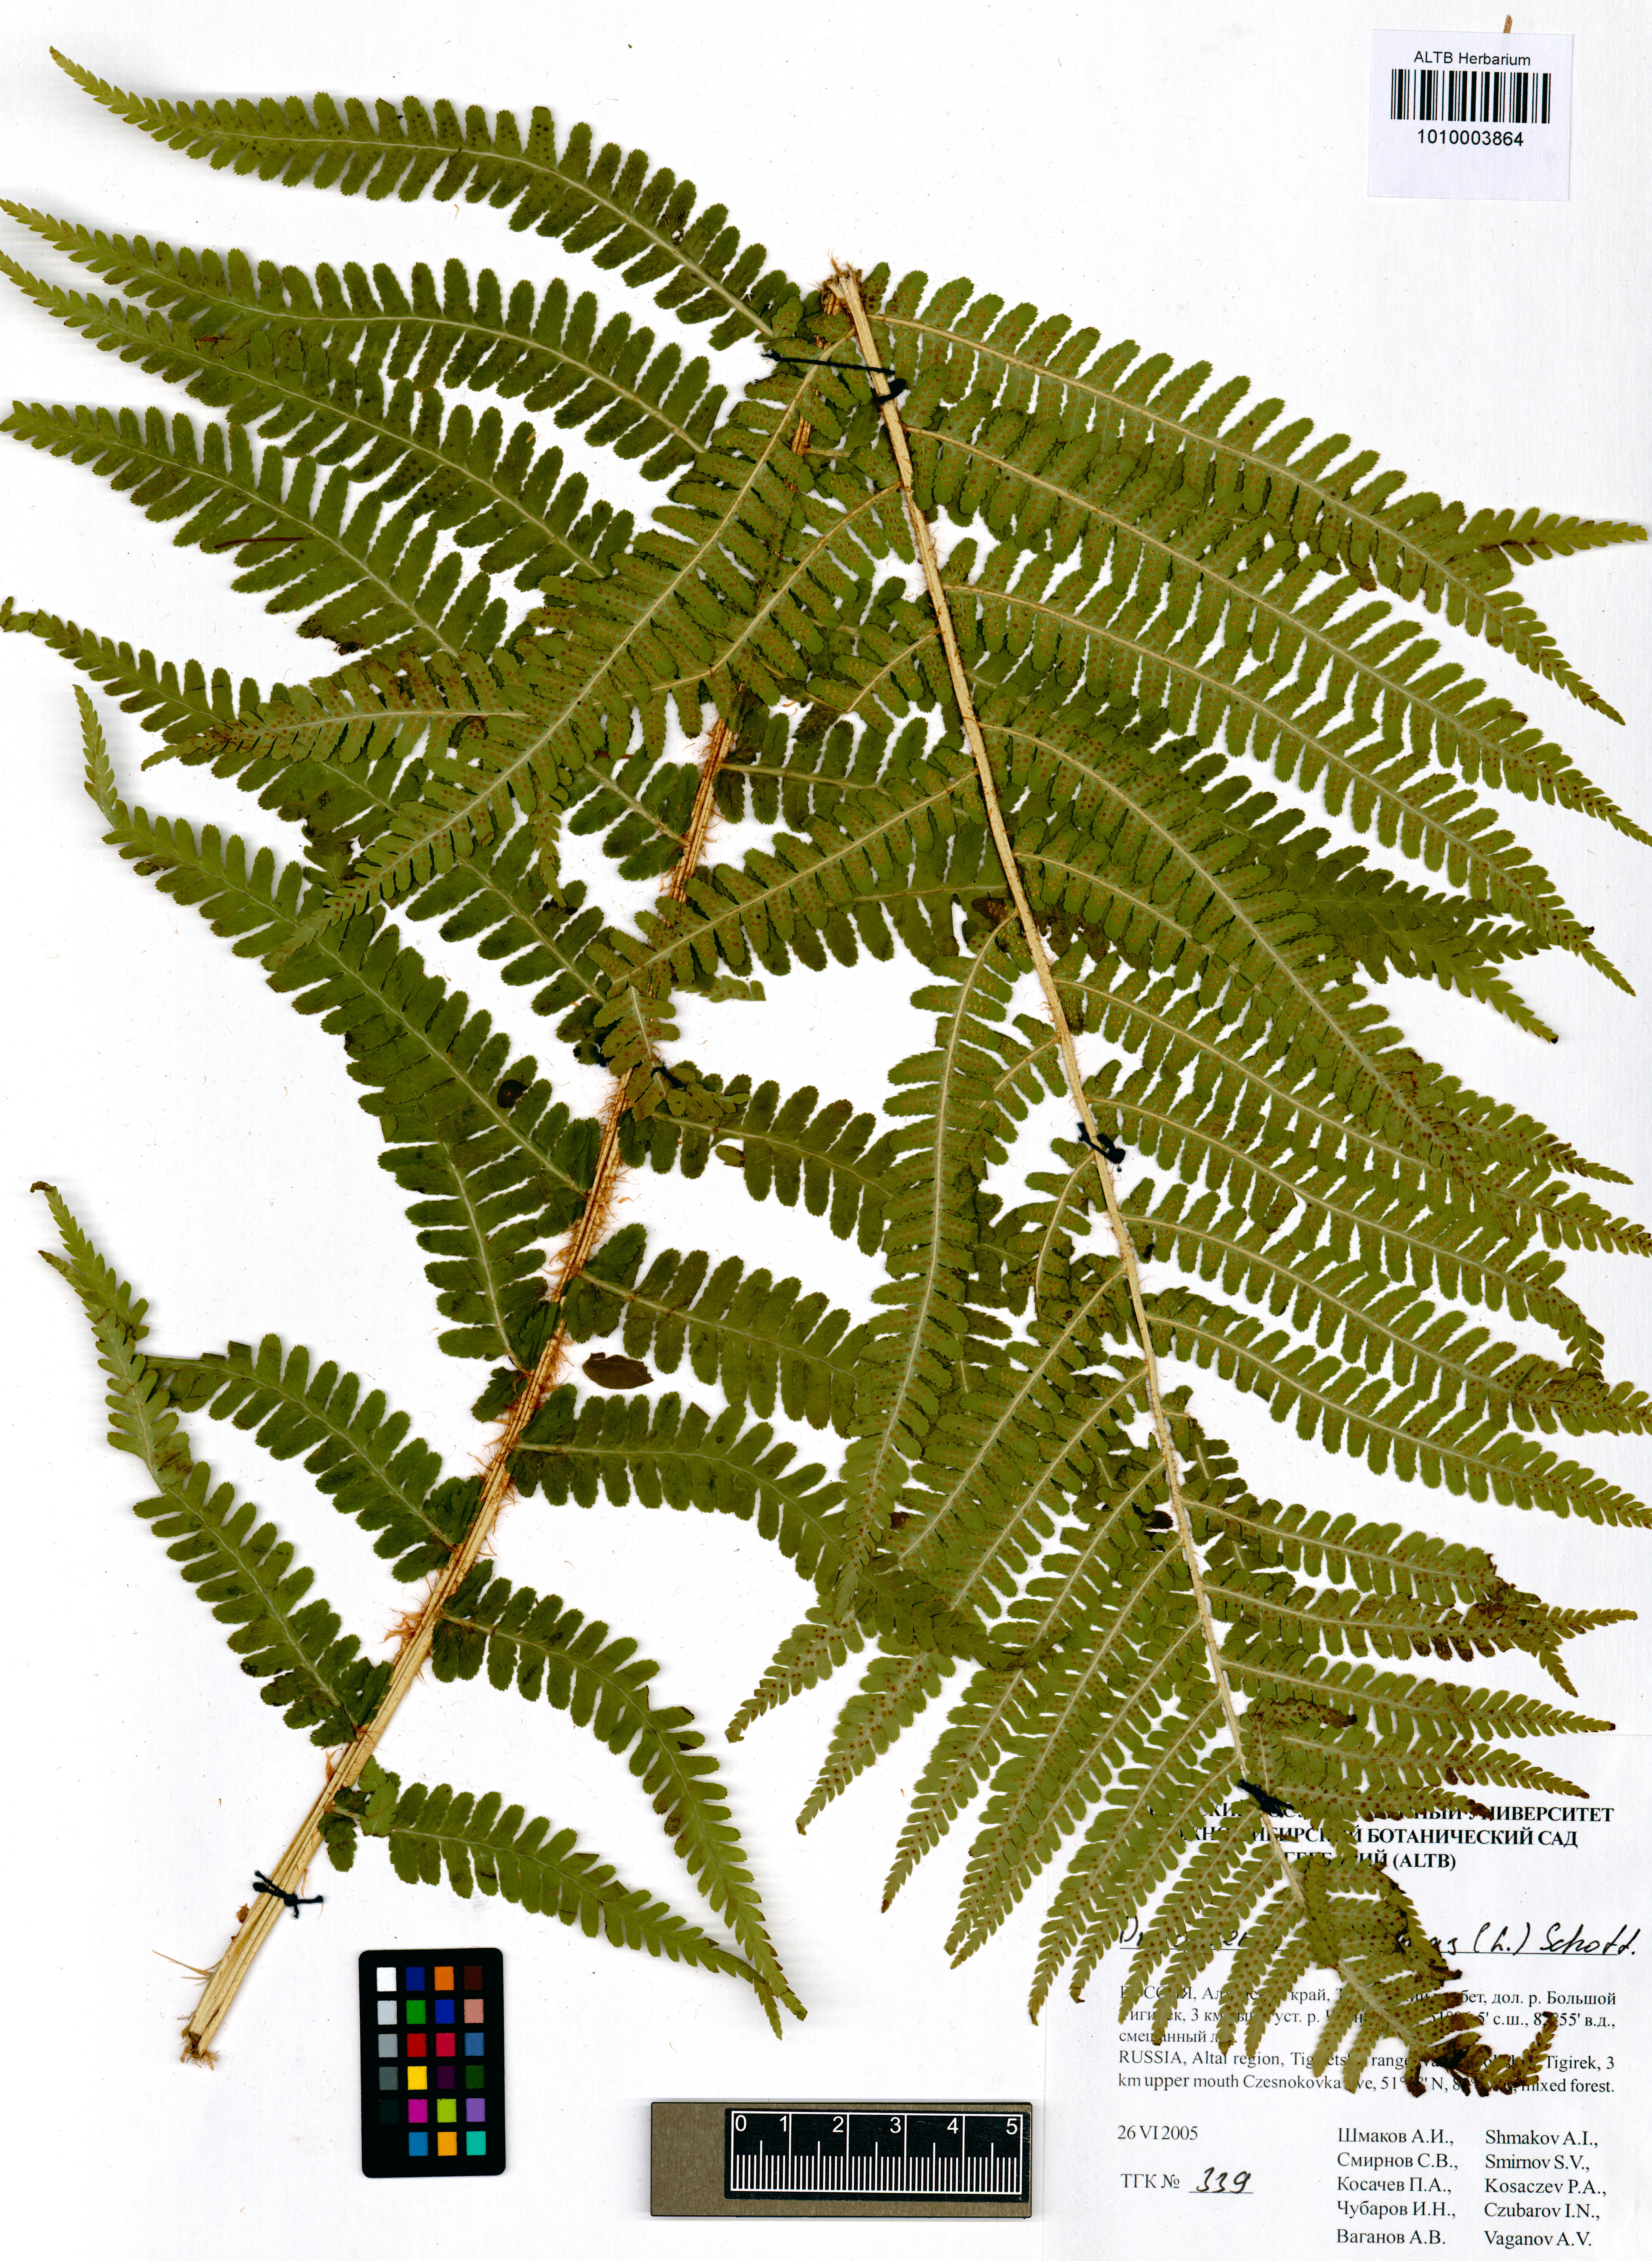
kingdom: Plantae
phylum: Tracheophyta
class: Polypodiopsida
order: Polypodiales
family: Dryopteridaceae
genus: Dryopteris
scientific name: Dryopteris filix-mas
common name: Male fern
